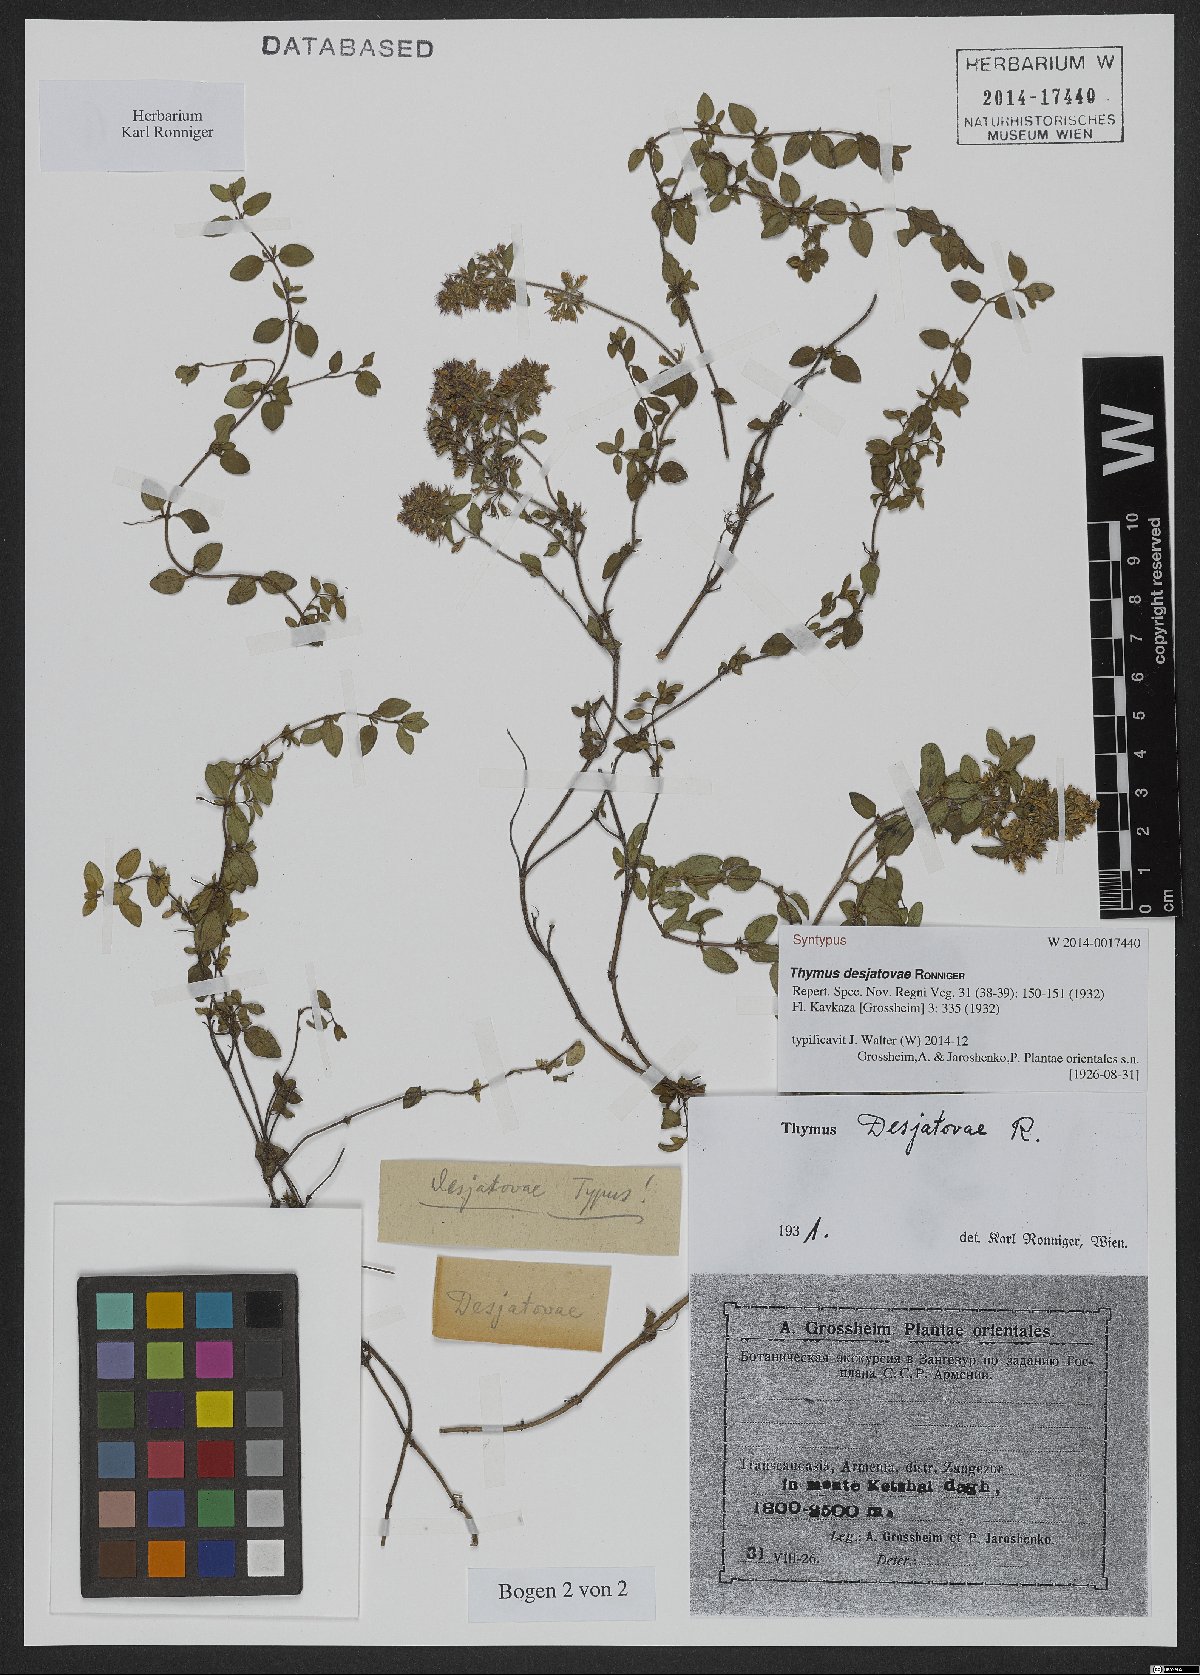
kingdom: Plantae
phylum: Tracheophyta
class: Magnoliopsida
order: Lamiales
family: Lamiaceae
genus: Thymus
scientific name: Thymus desjatovae
